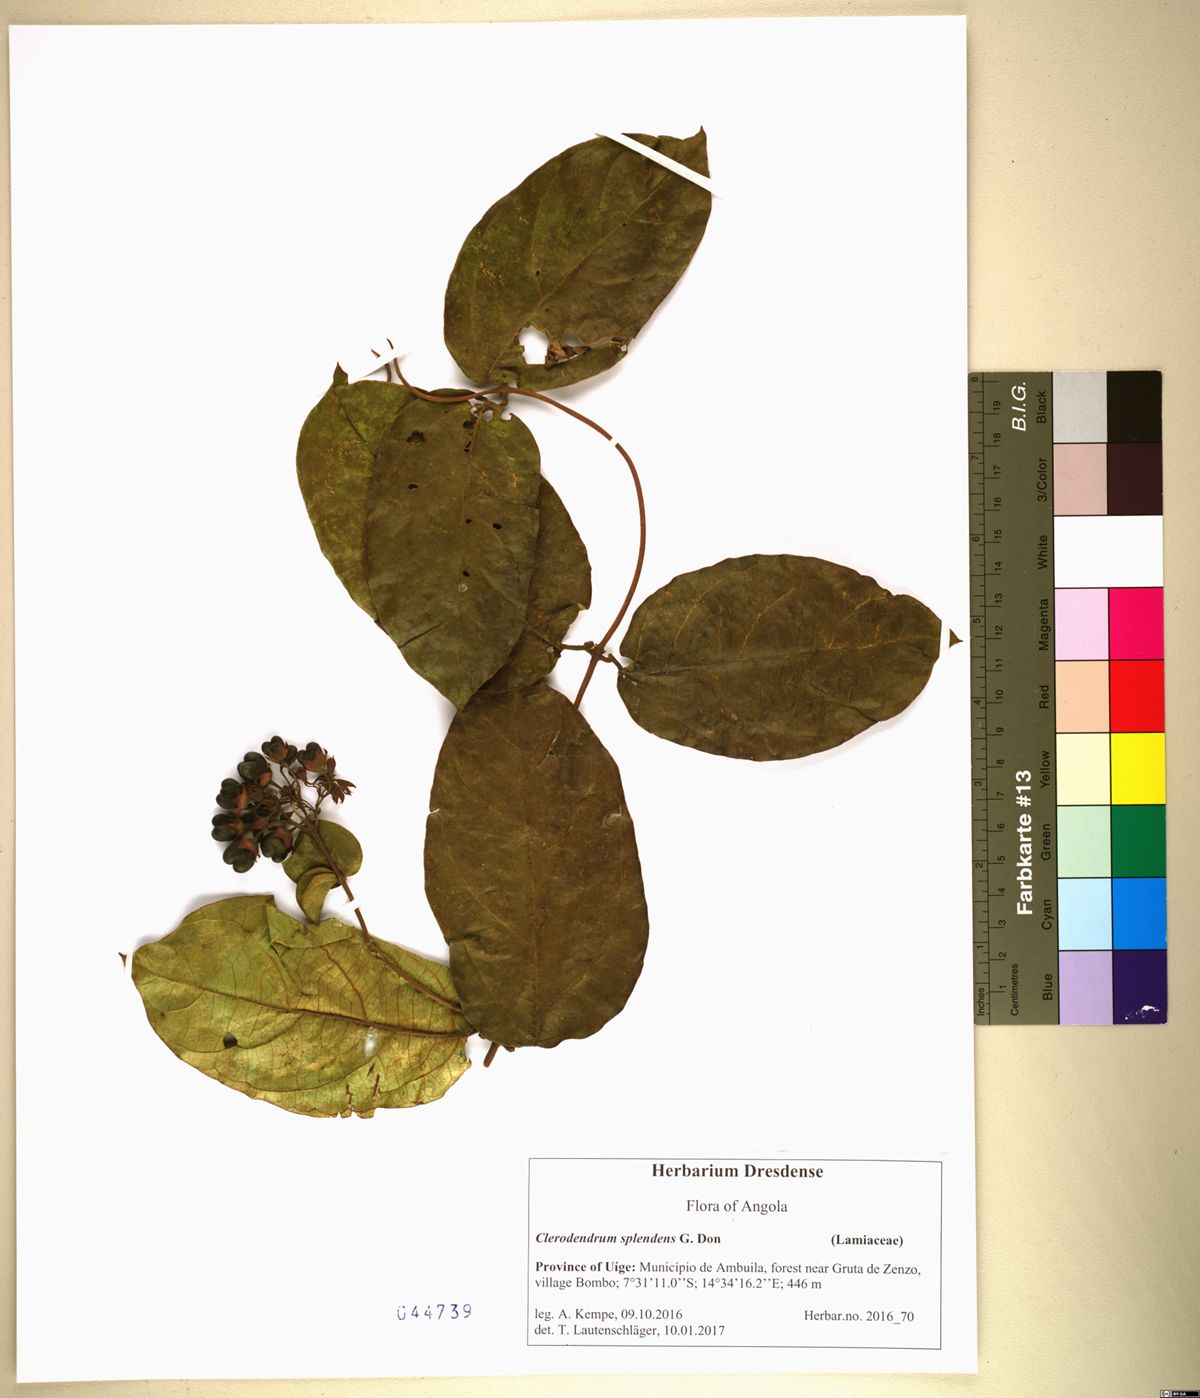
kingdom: Plantae
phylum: Tracheophyta
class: Magnoliopsida
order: Lamiales
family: Lamiaceae
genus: Clerodendrum
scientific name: Clerodendrum splendens
